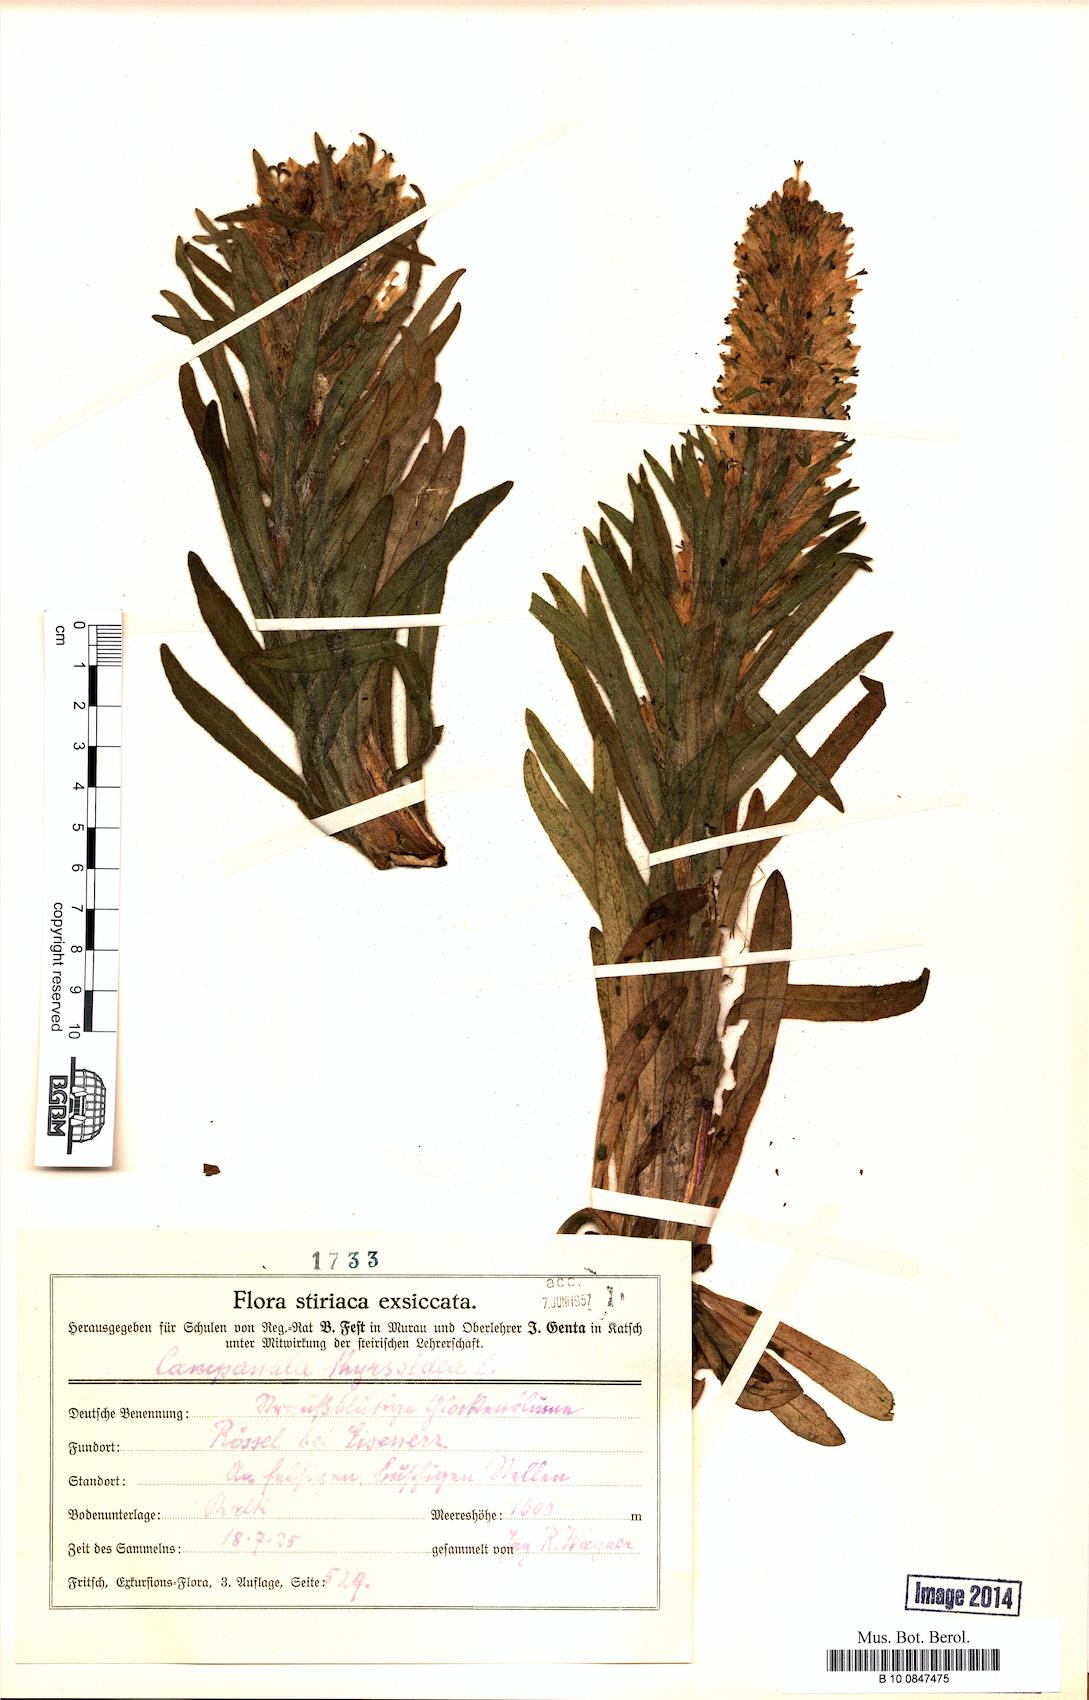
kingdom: Plantae
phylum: Tracheophyta
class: Magnoliopsida
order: Asterales
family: Campanulaceae
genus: Campanula
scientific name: Campanula thyrsoides
